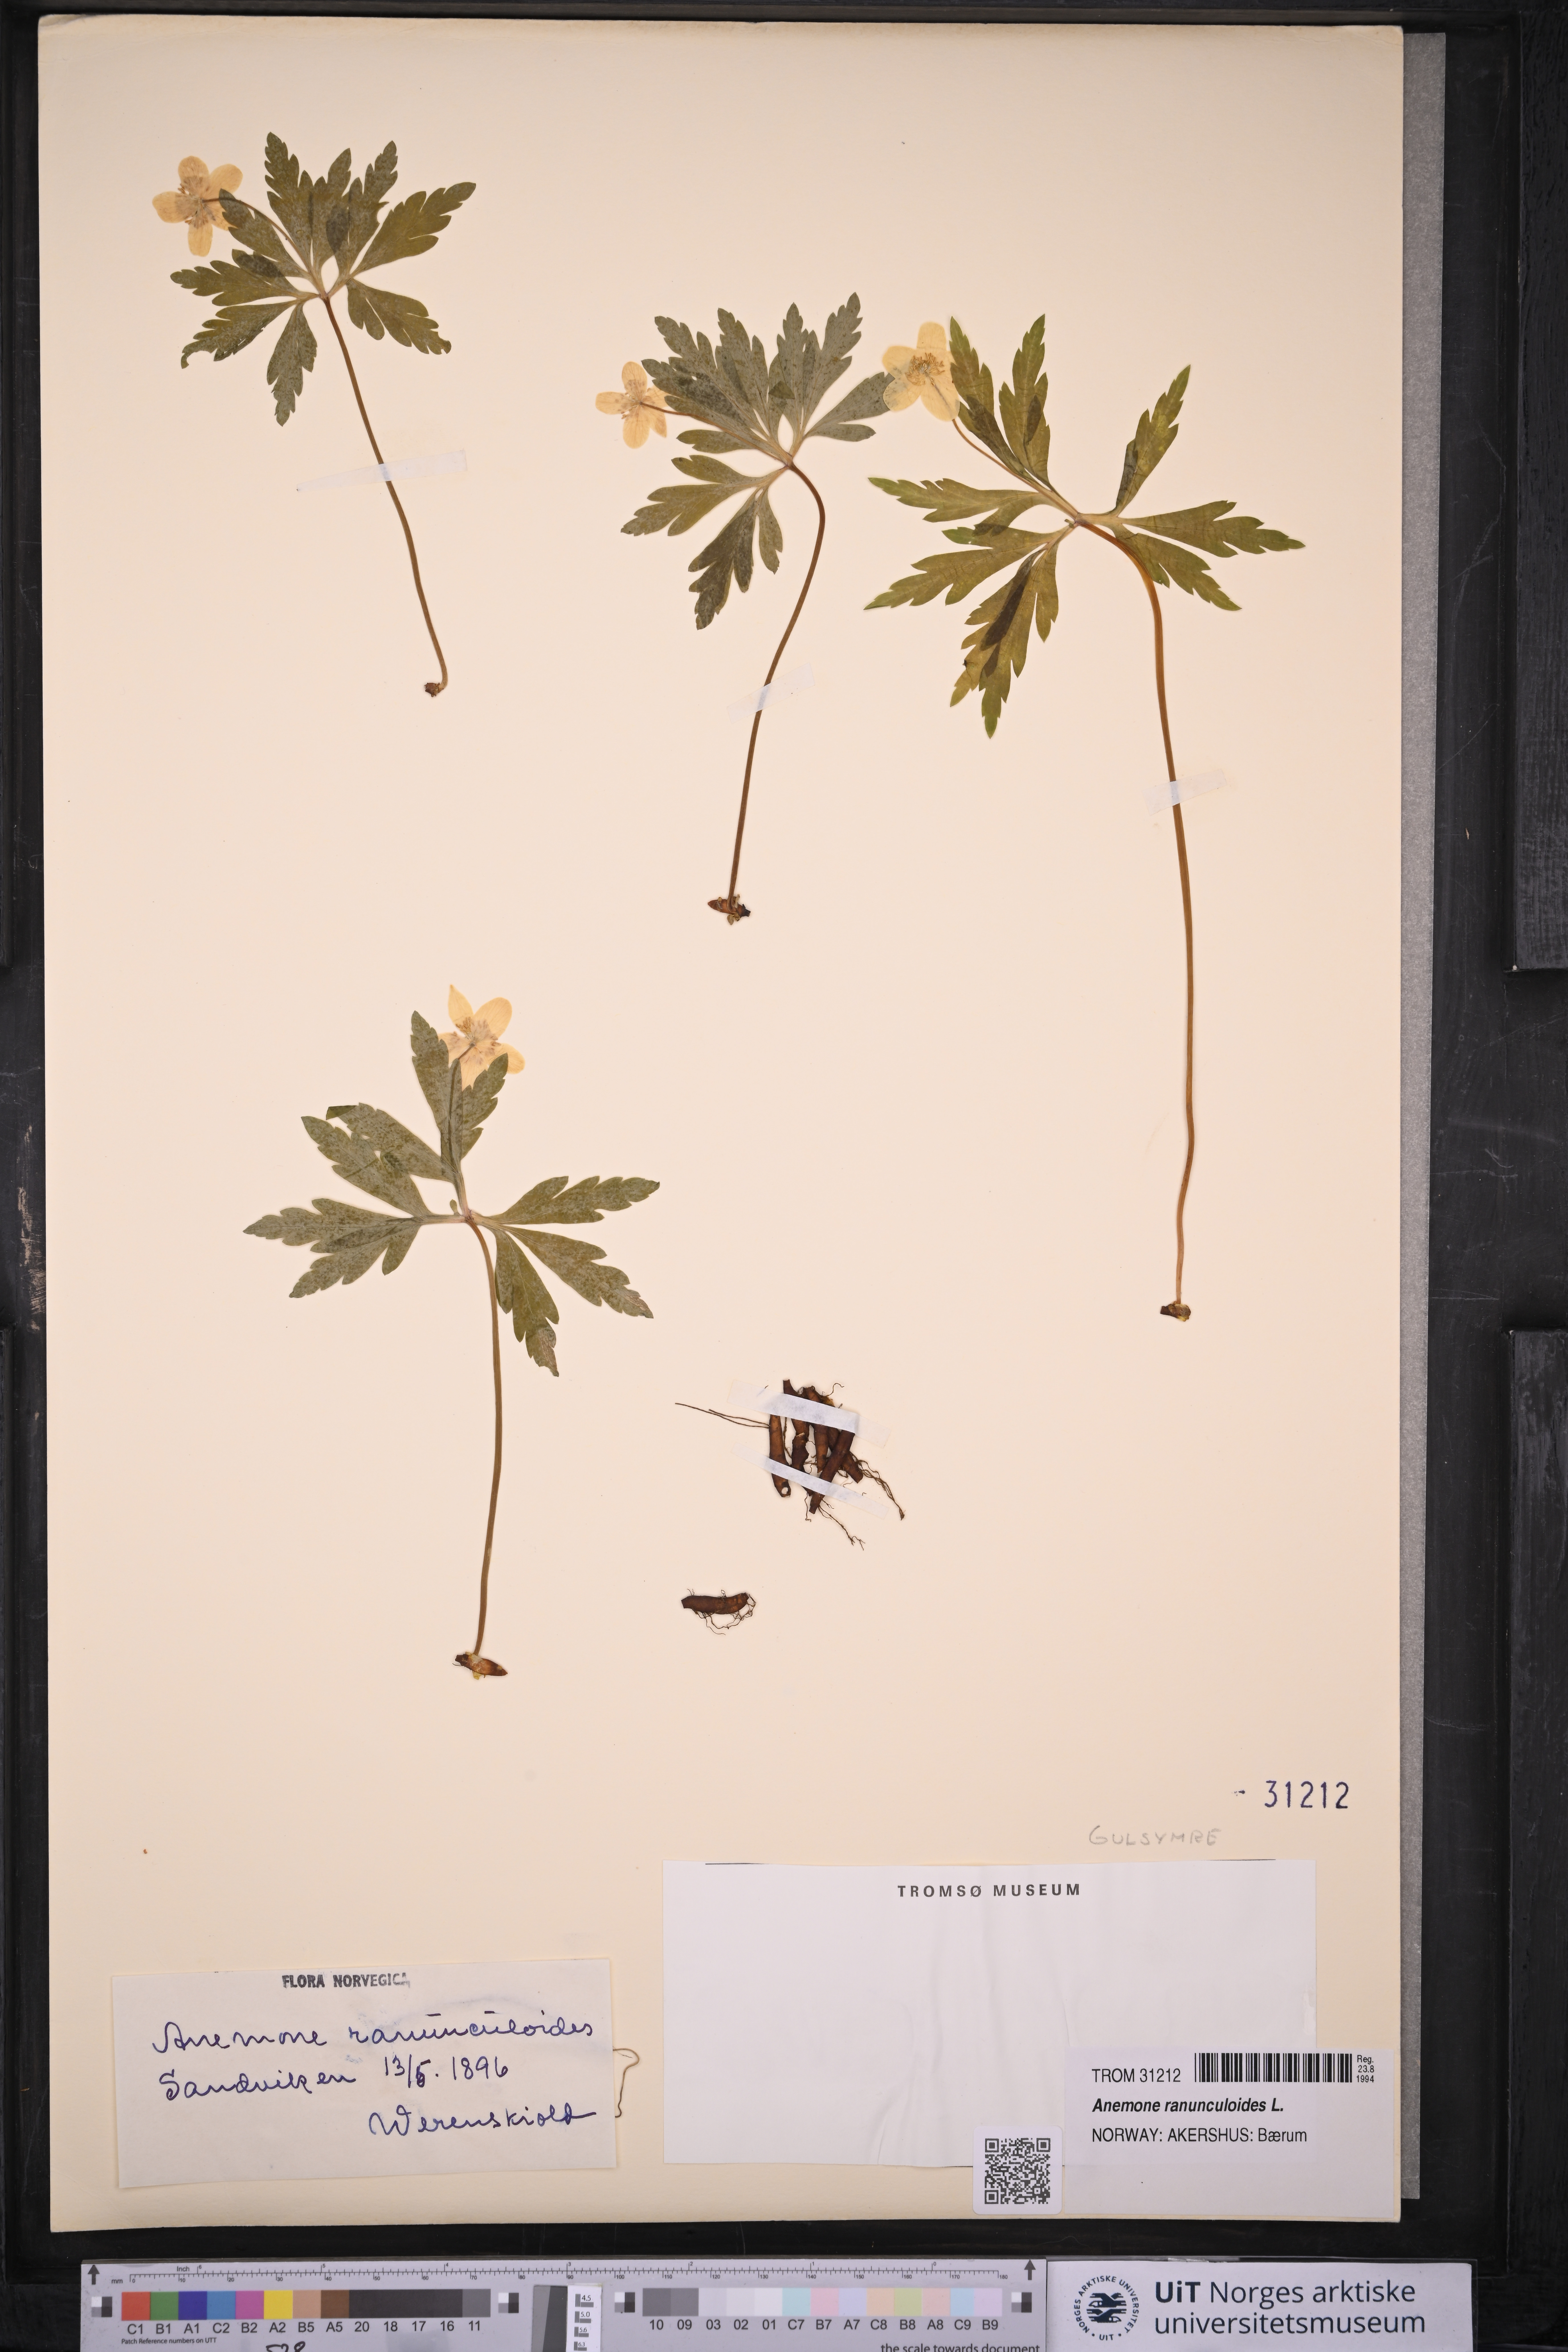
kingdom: Plantae
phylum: Tracheophyta
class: Magnoliopsida
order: Ranunculales
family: Ranunculaceae
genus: Anemone
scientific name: Anemone ranunculoides
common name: Yellow anemone
